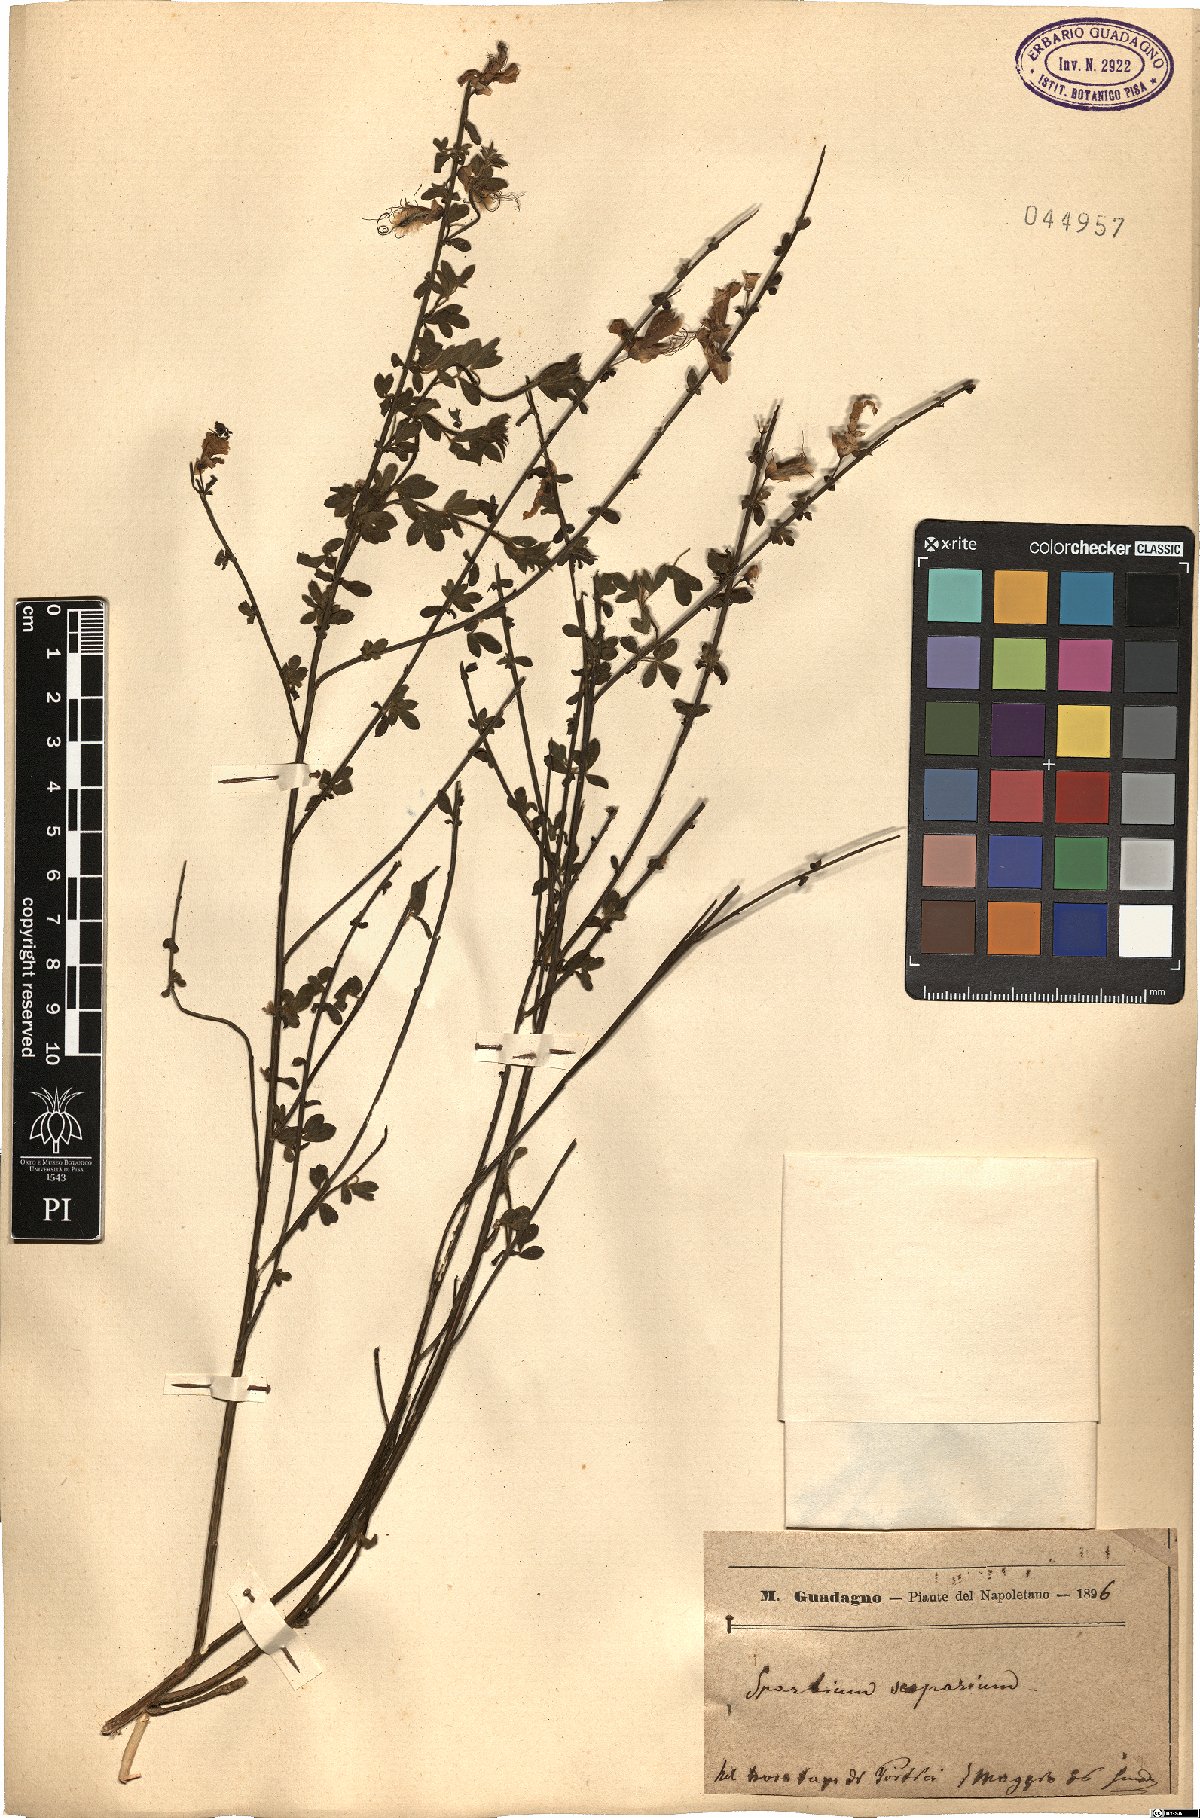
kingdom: Plantae
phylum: Tracheophyta
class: Magnoliopsida
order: Fabales
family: Fabaceae
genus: Lebeckia
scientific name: Lebeckia sepiaria
